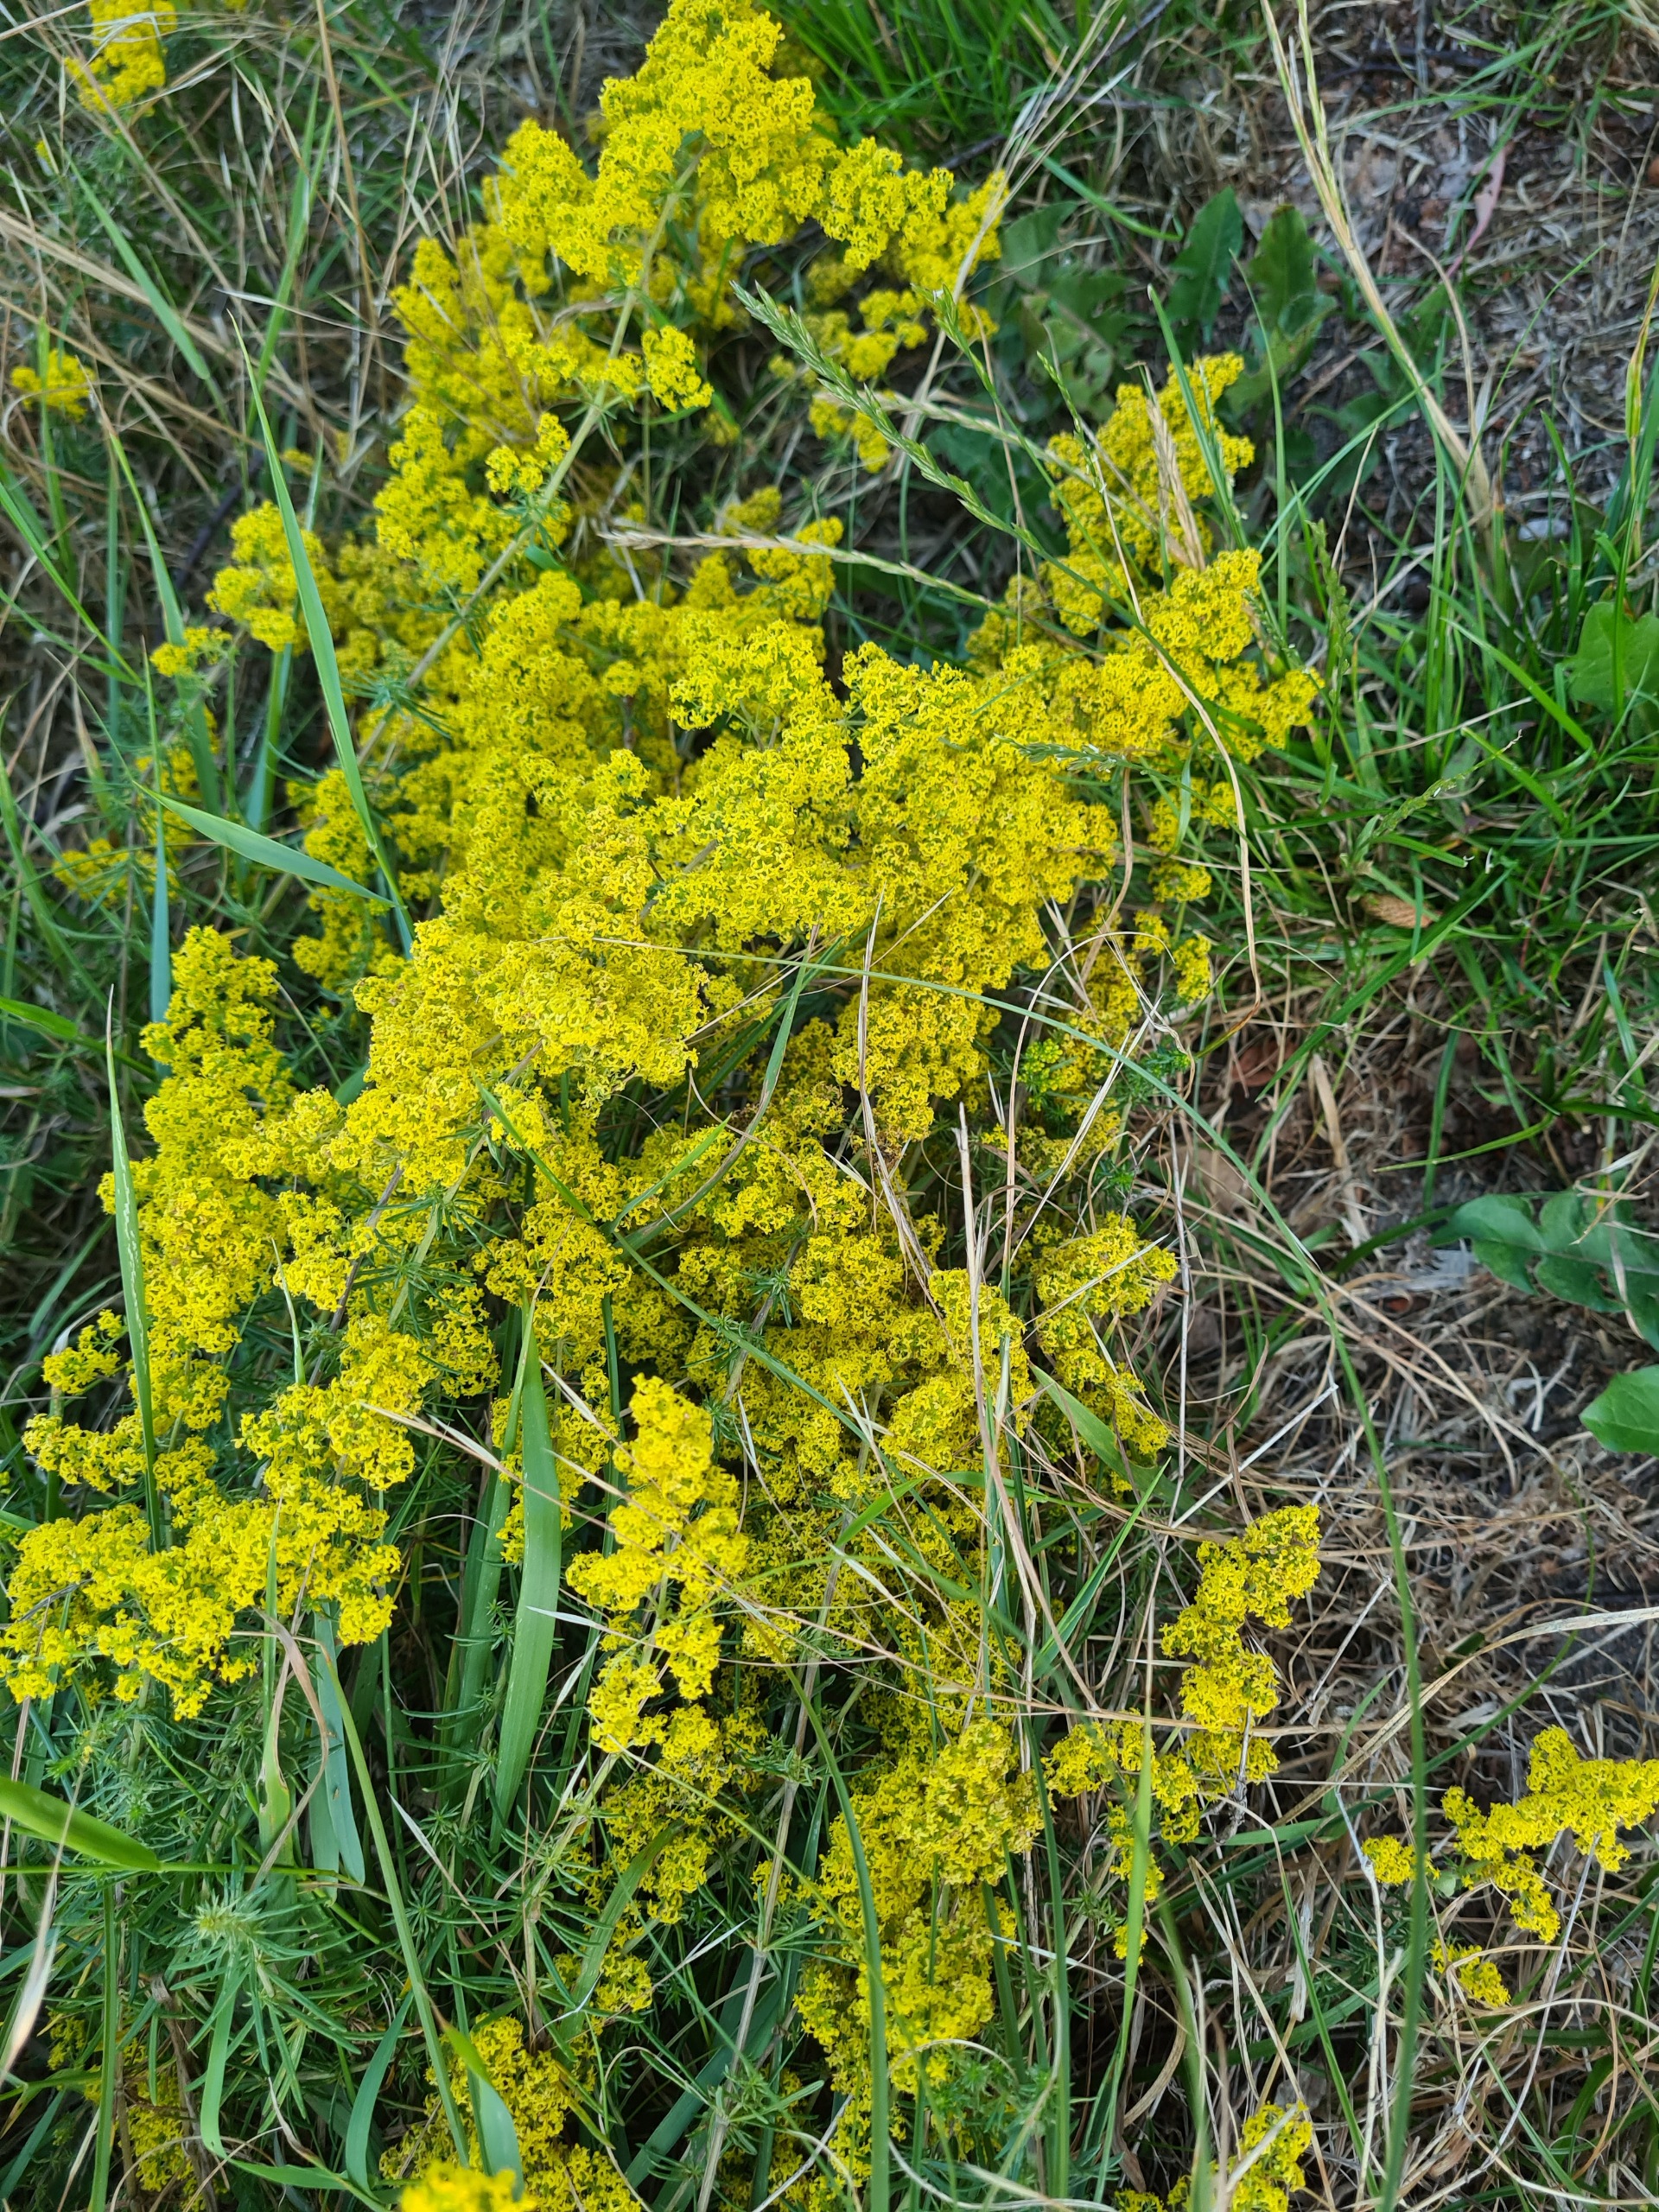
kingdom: Plantae
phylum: Tracheophyta
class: Magnoliopsida
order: Gentianales
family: Rubiaceae
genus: Galium
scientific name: Galium verum
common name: Gul snerre
